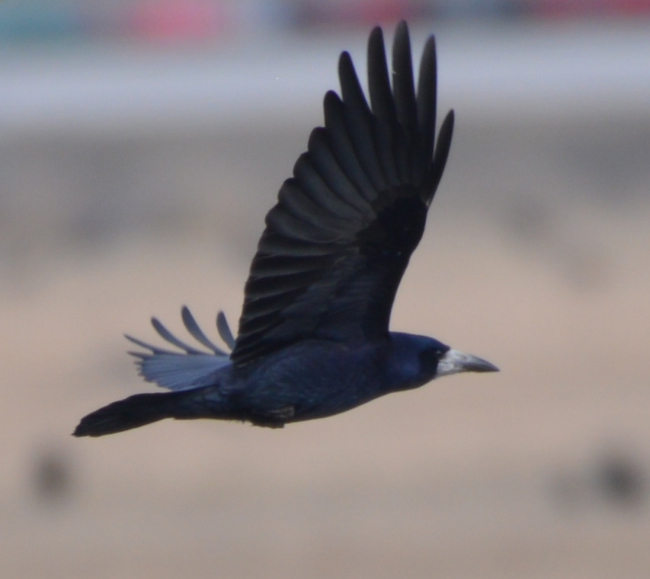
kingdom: Animalia
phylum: Chordata
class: Aves
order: Passeriformes
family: Corvidae
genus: Corvus
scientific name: Corvus frugilegus
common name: Rook
